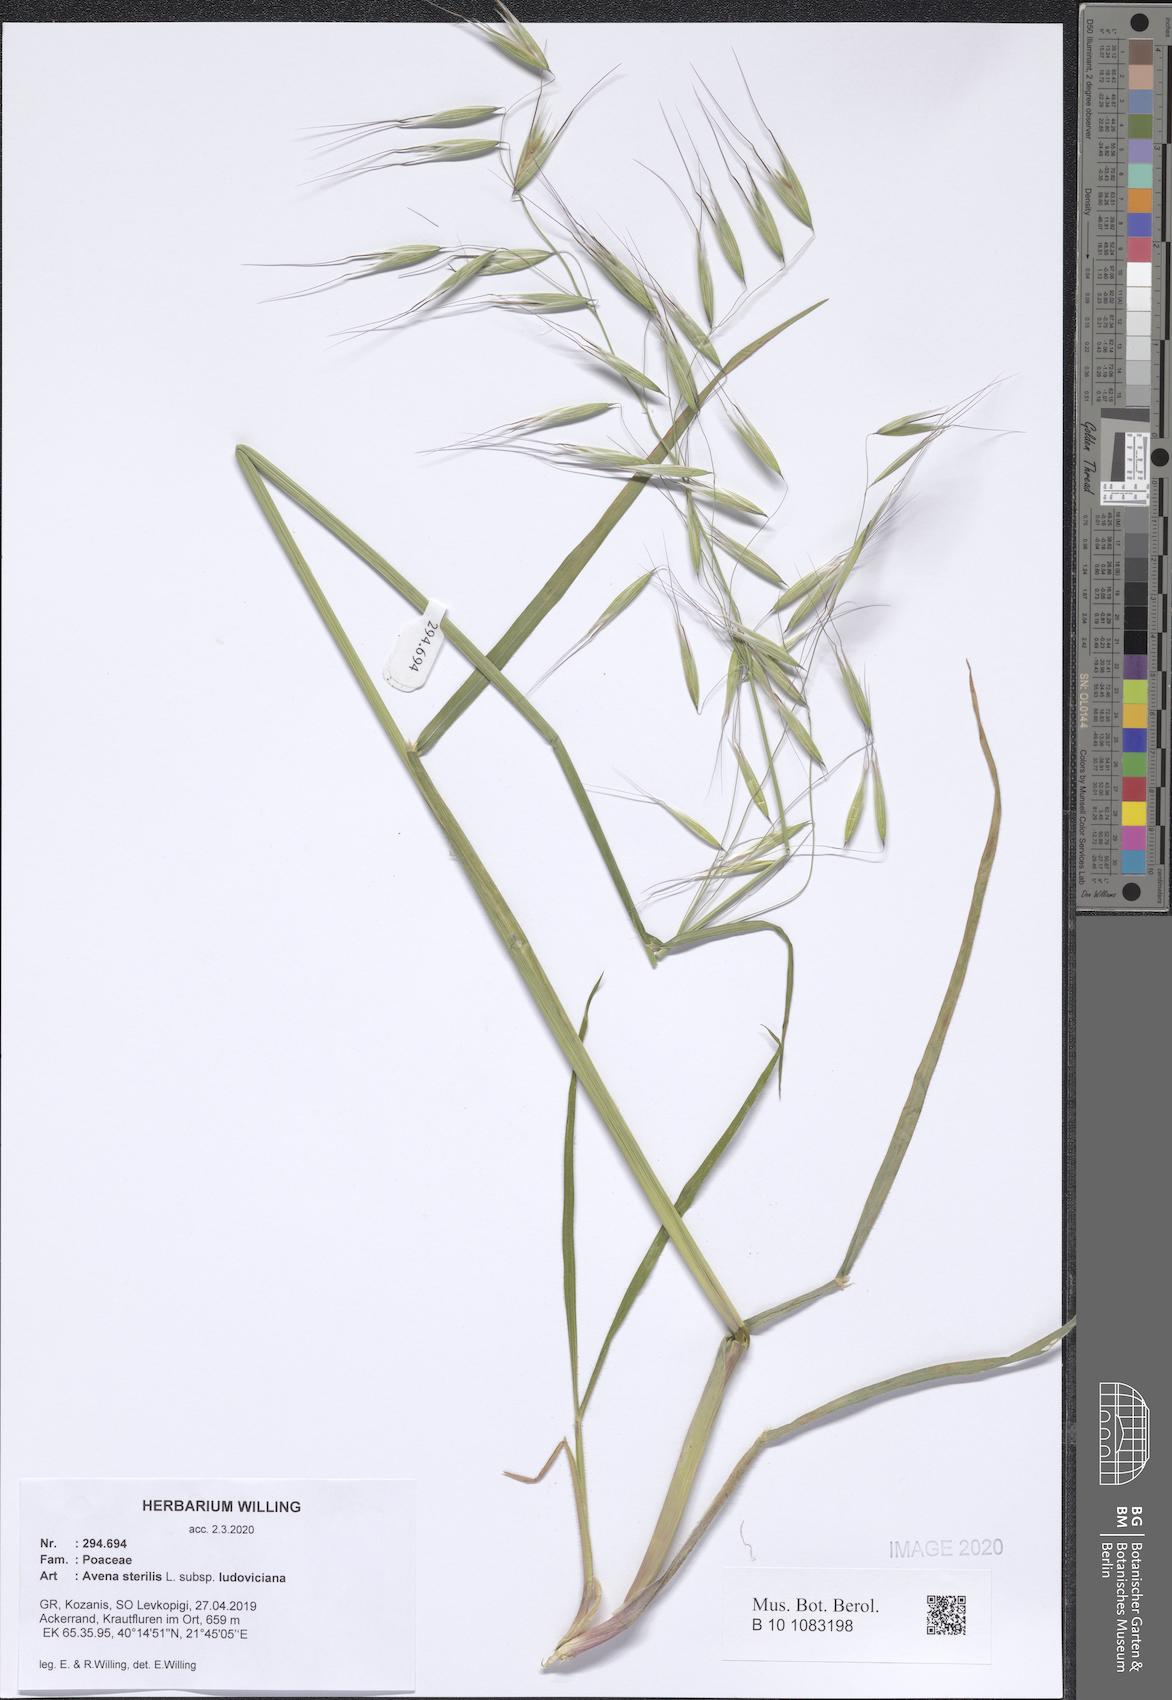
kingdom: Plantae
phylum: Tracheophyta
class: Liliopsida
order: Poales
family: Poaceae
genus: Avena
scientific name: Avena sterilis
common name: Animated oat
